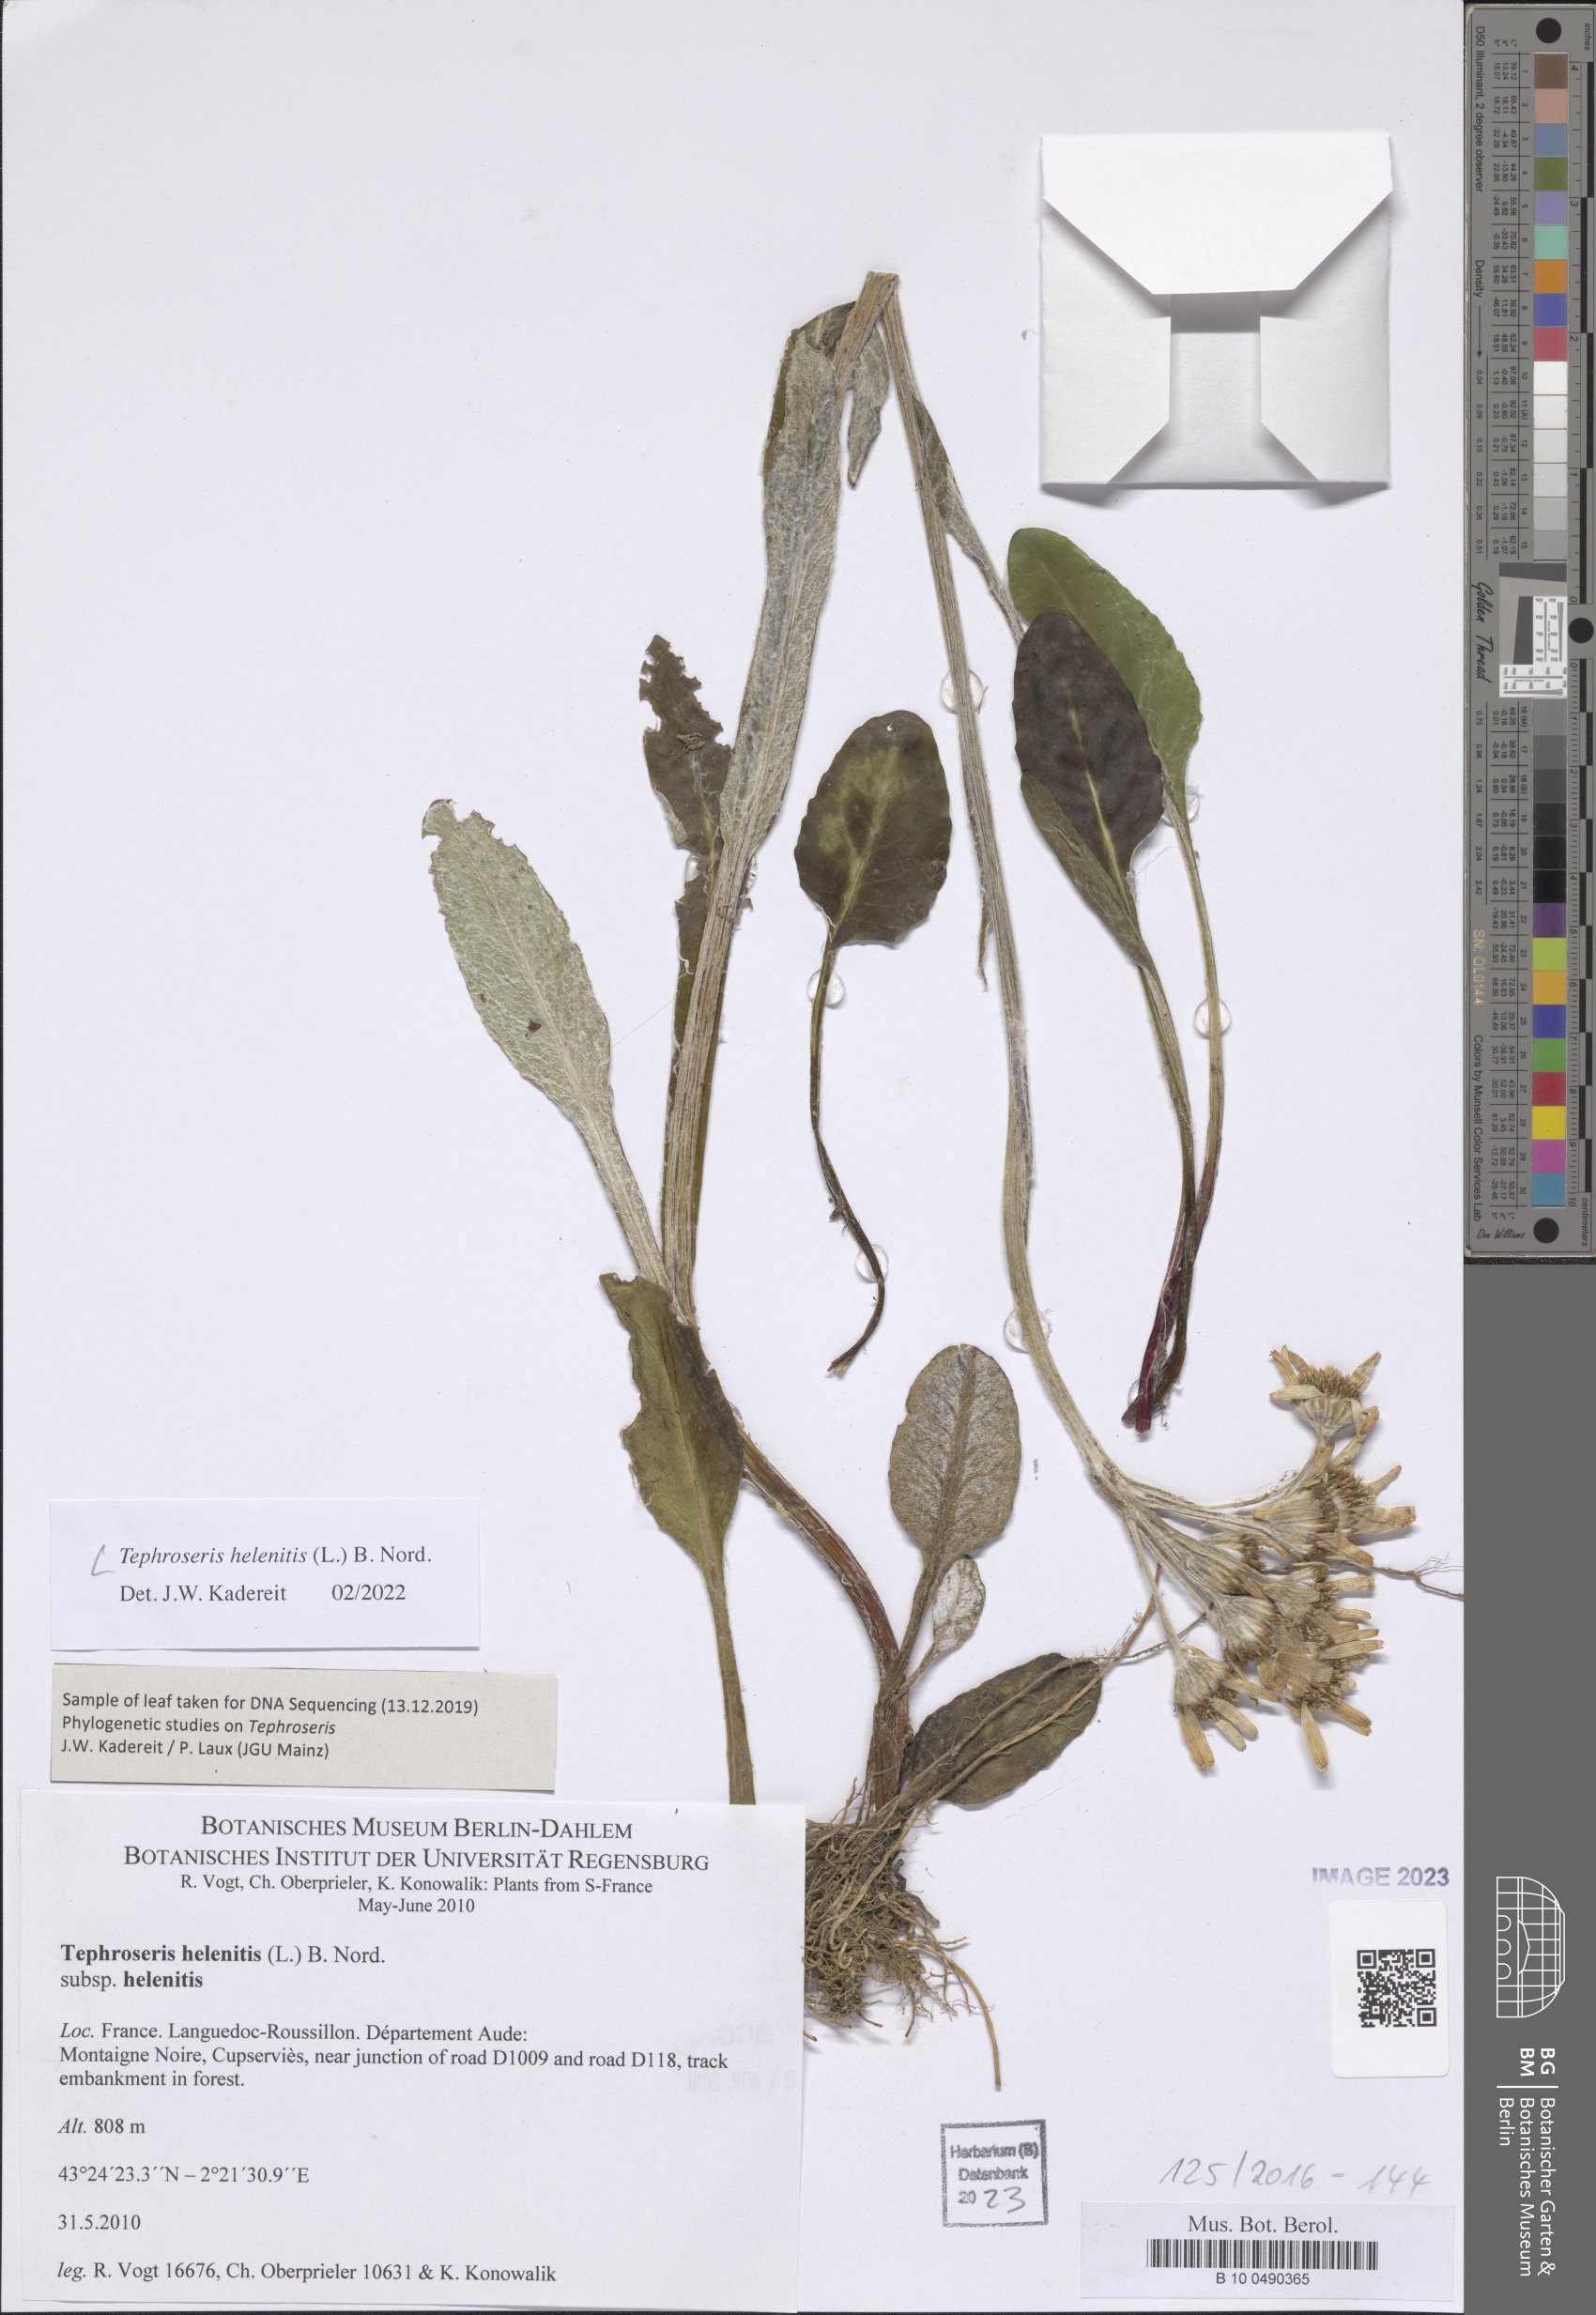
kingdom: Plantae
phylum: Tracheophyta
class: Magnoliopsida
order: Asterales
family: Asteraceae
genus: Tephroseris
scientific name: Tephroseris helenitis
